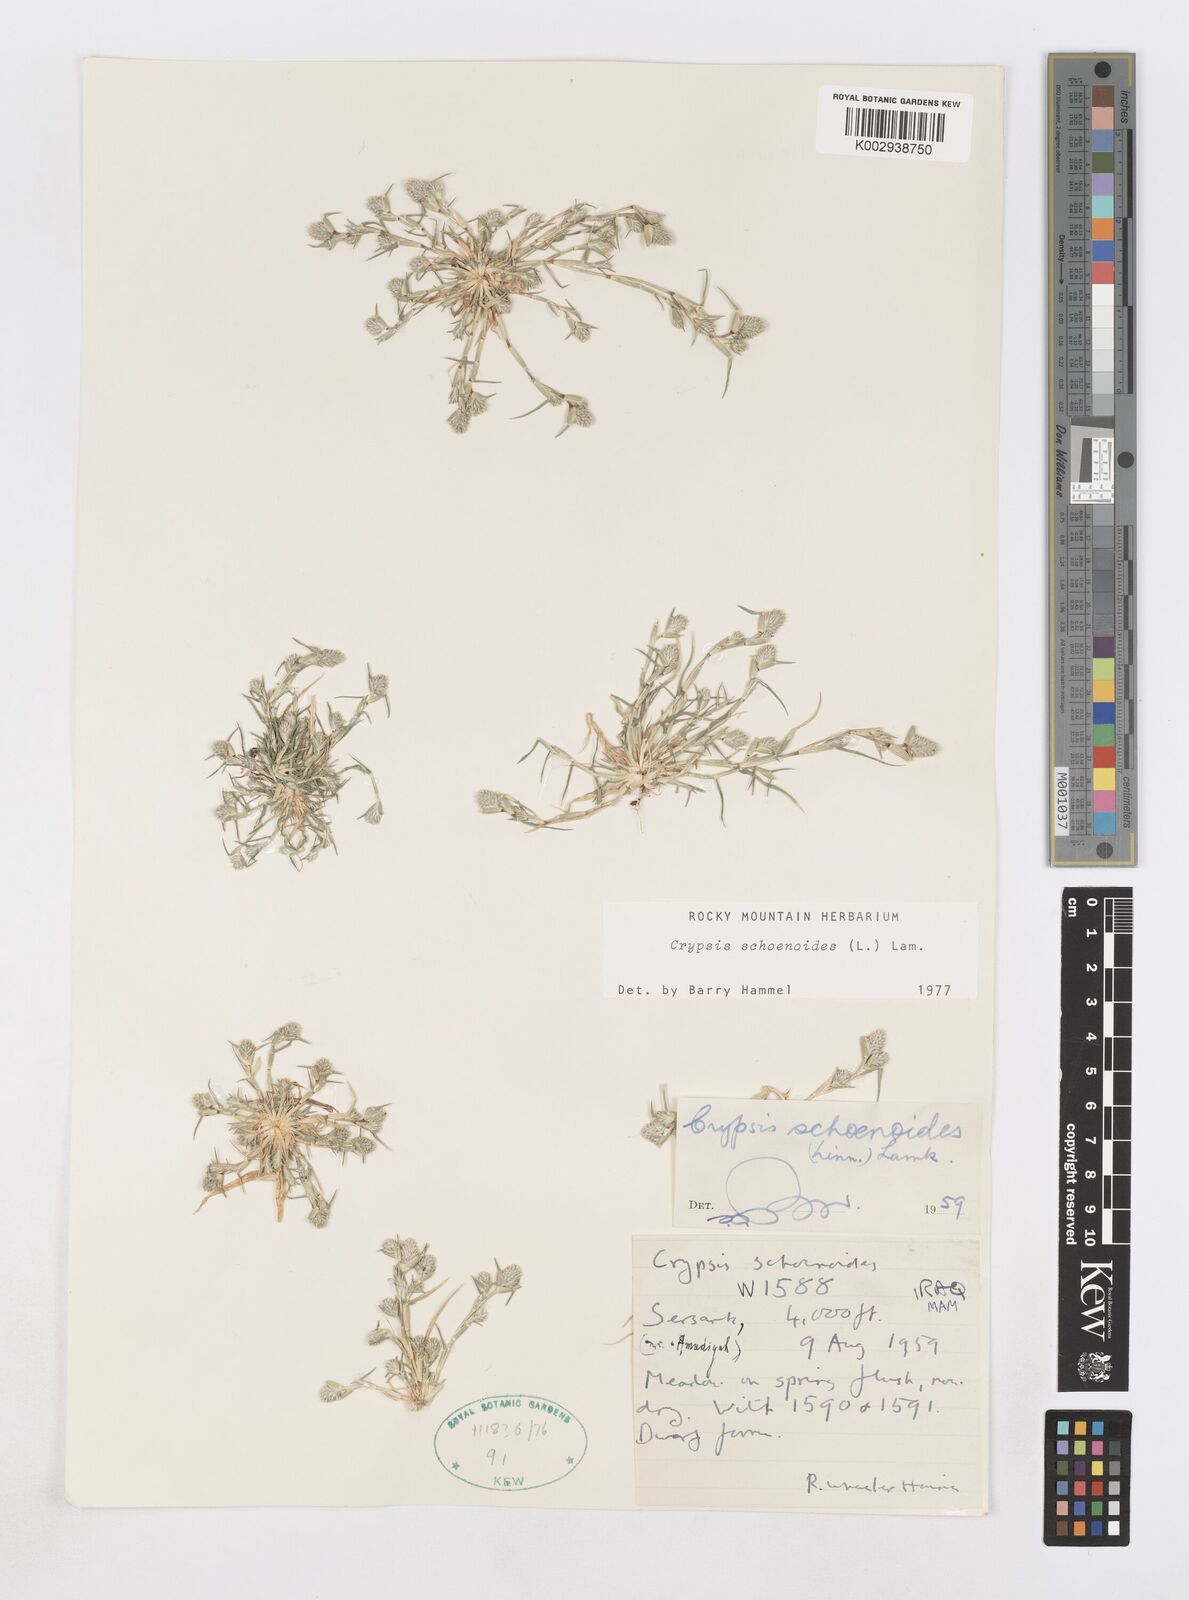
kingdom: Plantae
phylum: Tracheophyta
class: Liliopsida
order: Poales
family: Poaceae
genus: Sporobolus
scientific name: Sporobolus schoenoides
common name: Rush-like timothy
